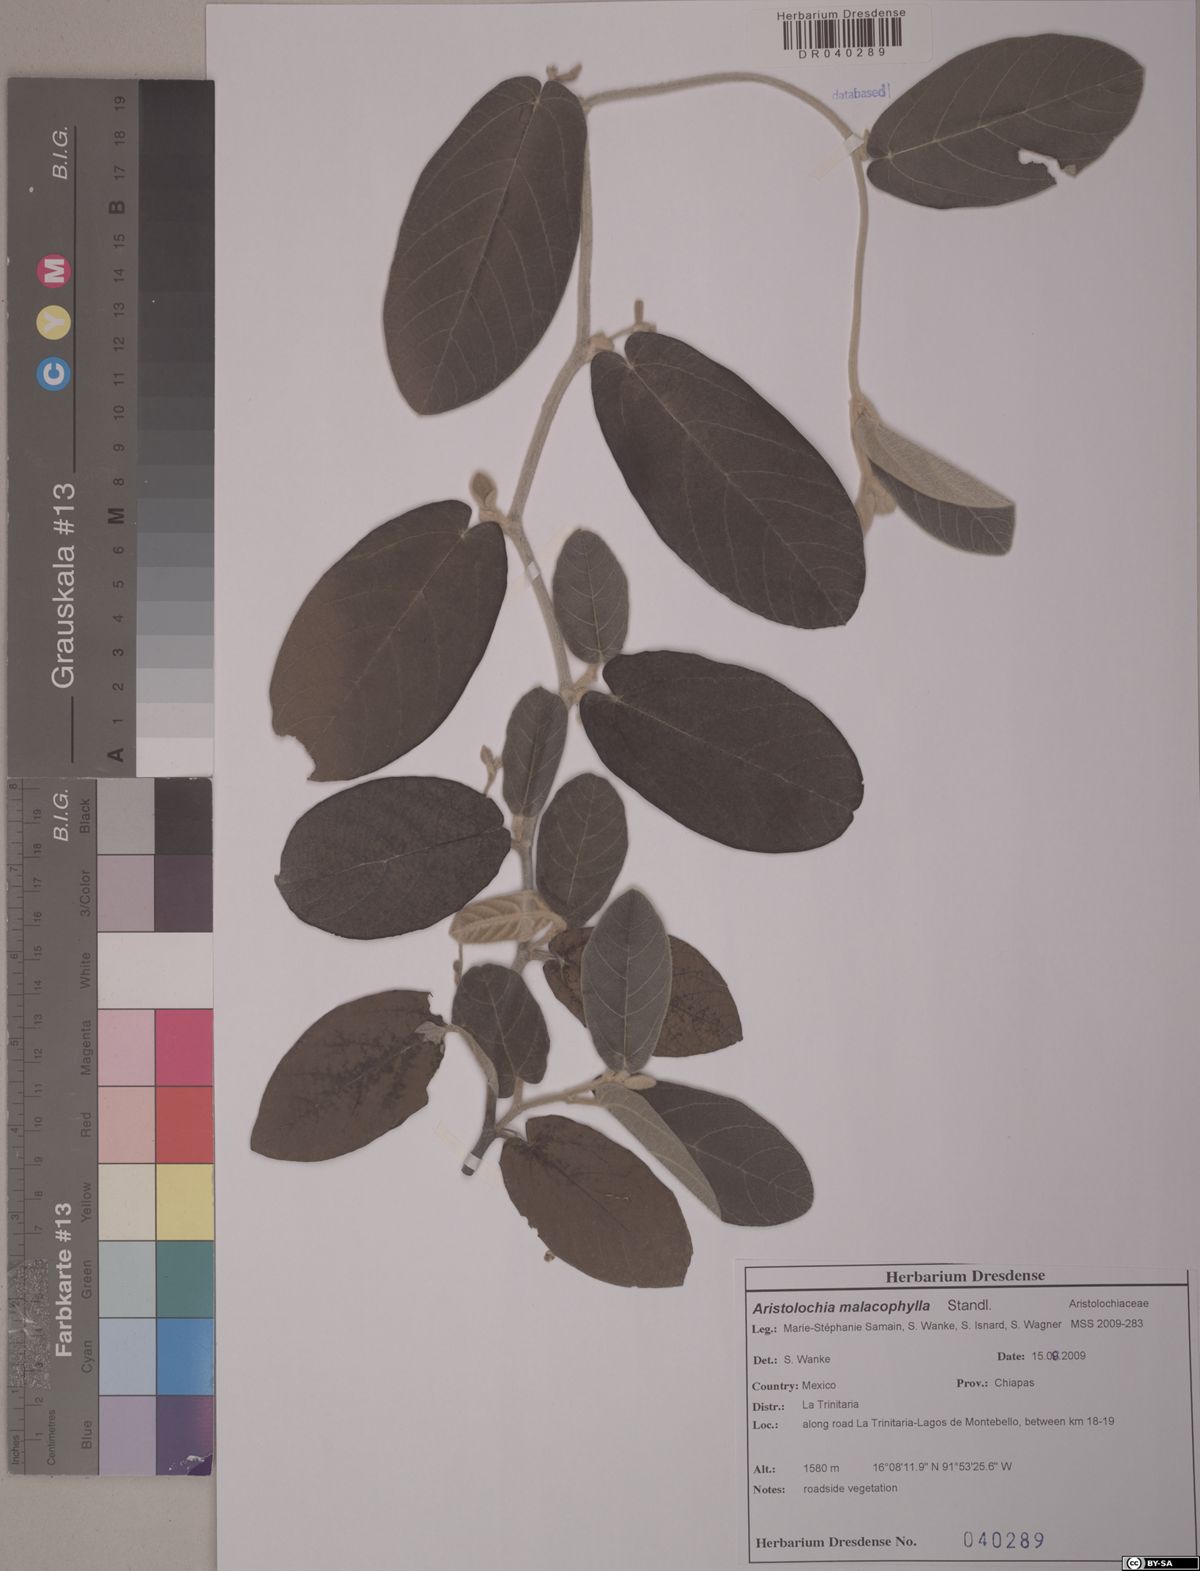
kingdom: Plantae
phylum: Tracheophyta
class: Magnoliopsida
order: Piperales
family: Aristolochiaceae
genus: Isotrema
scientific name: Isotrema malacophyllum
